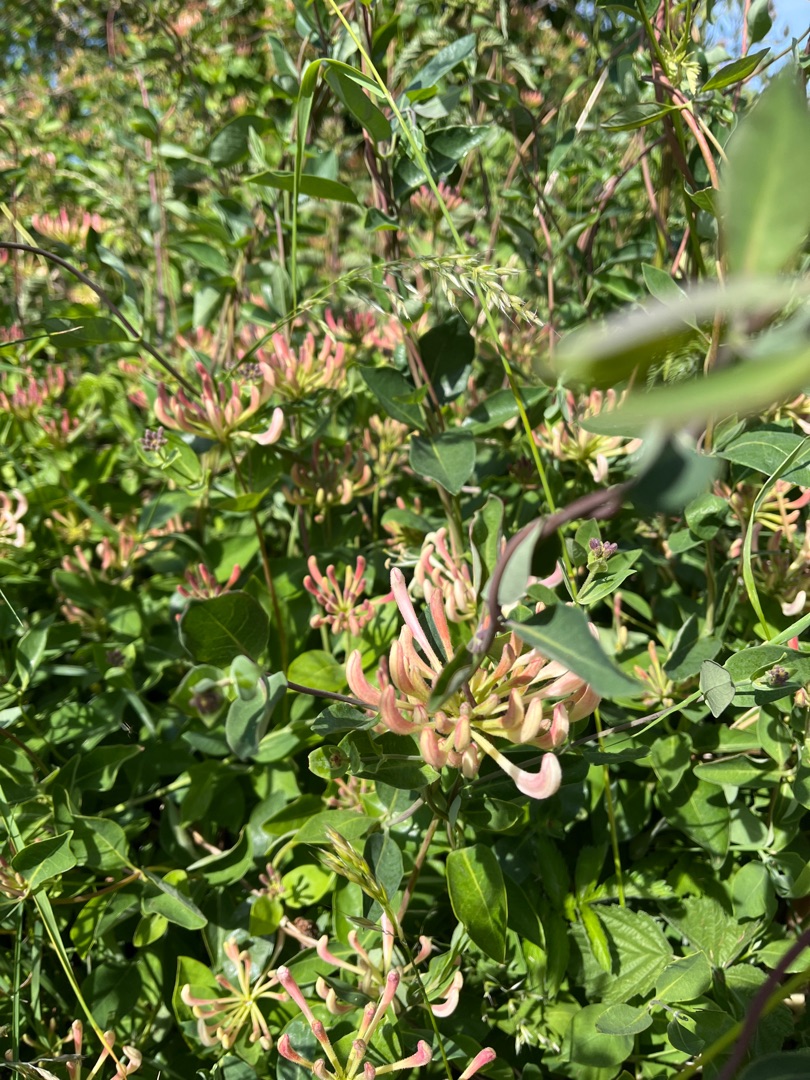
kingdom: Plantae
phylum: Tracheophyta
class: Magnoliopsida
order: Dipsacales
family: Caprifoliaceae
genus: Lonicera
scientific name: Lonicera periclymenum
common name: Almindelig gedeblad
